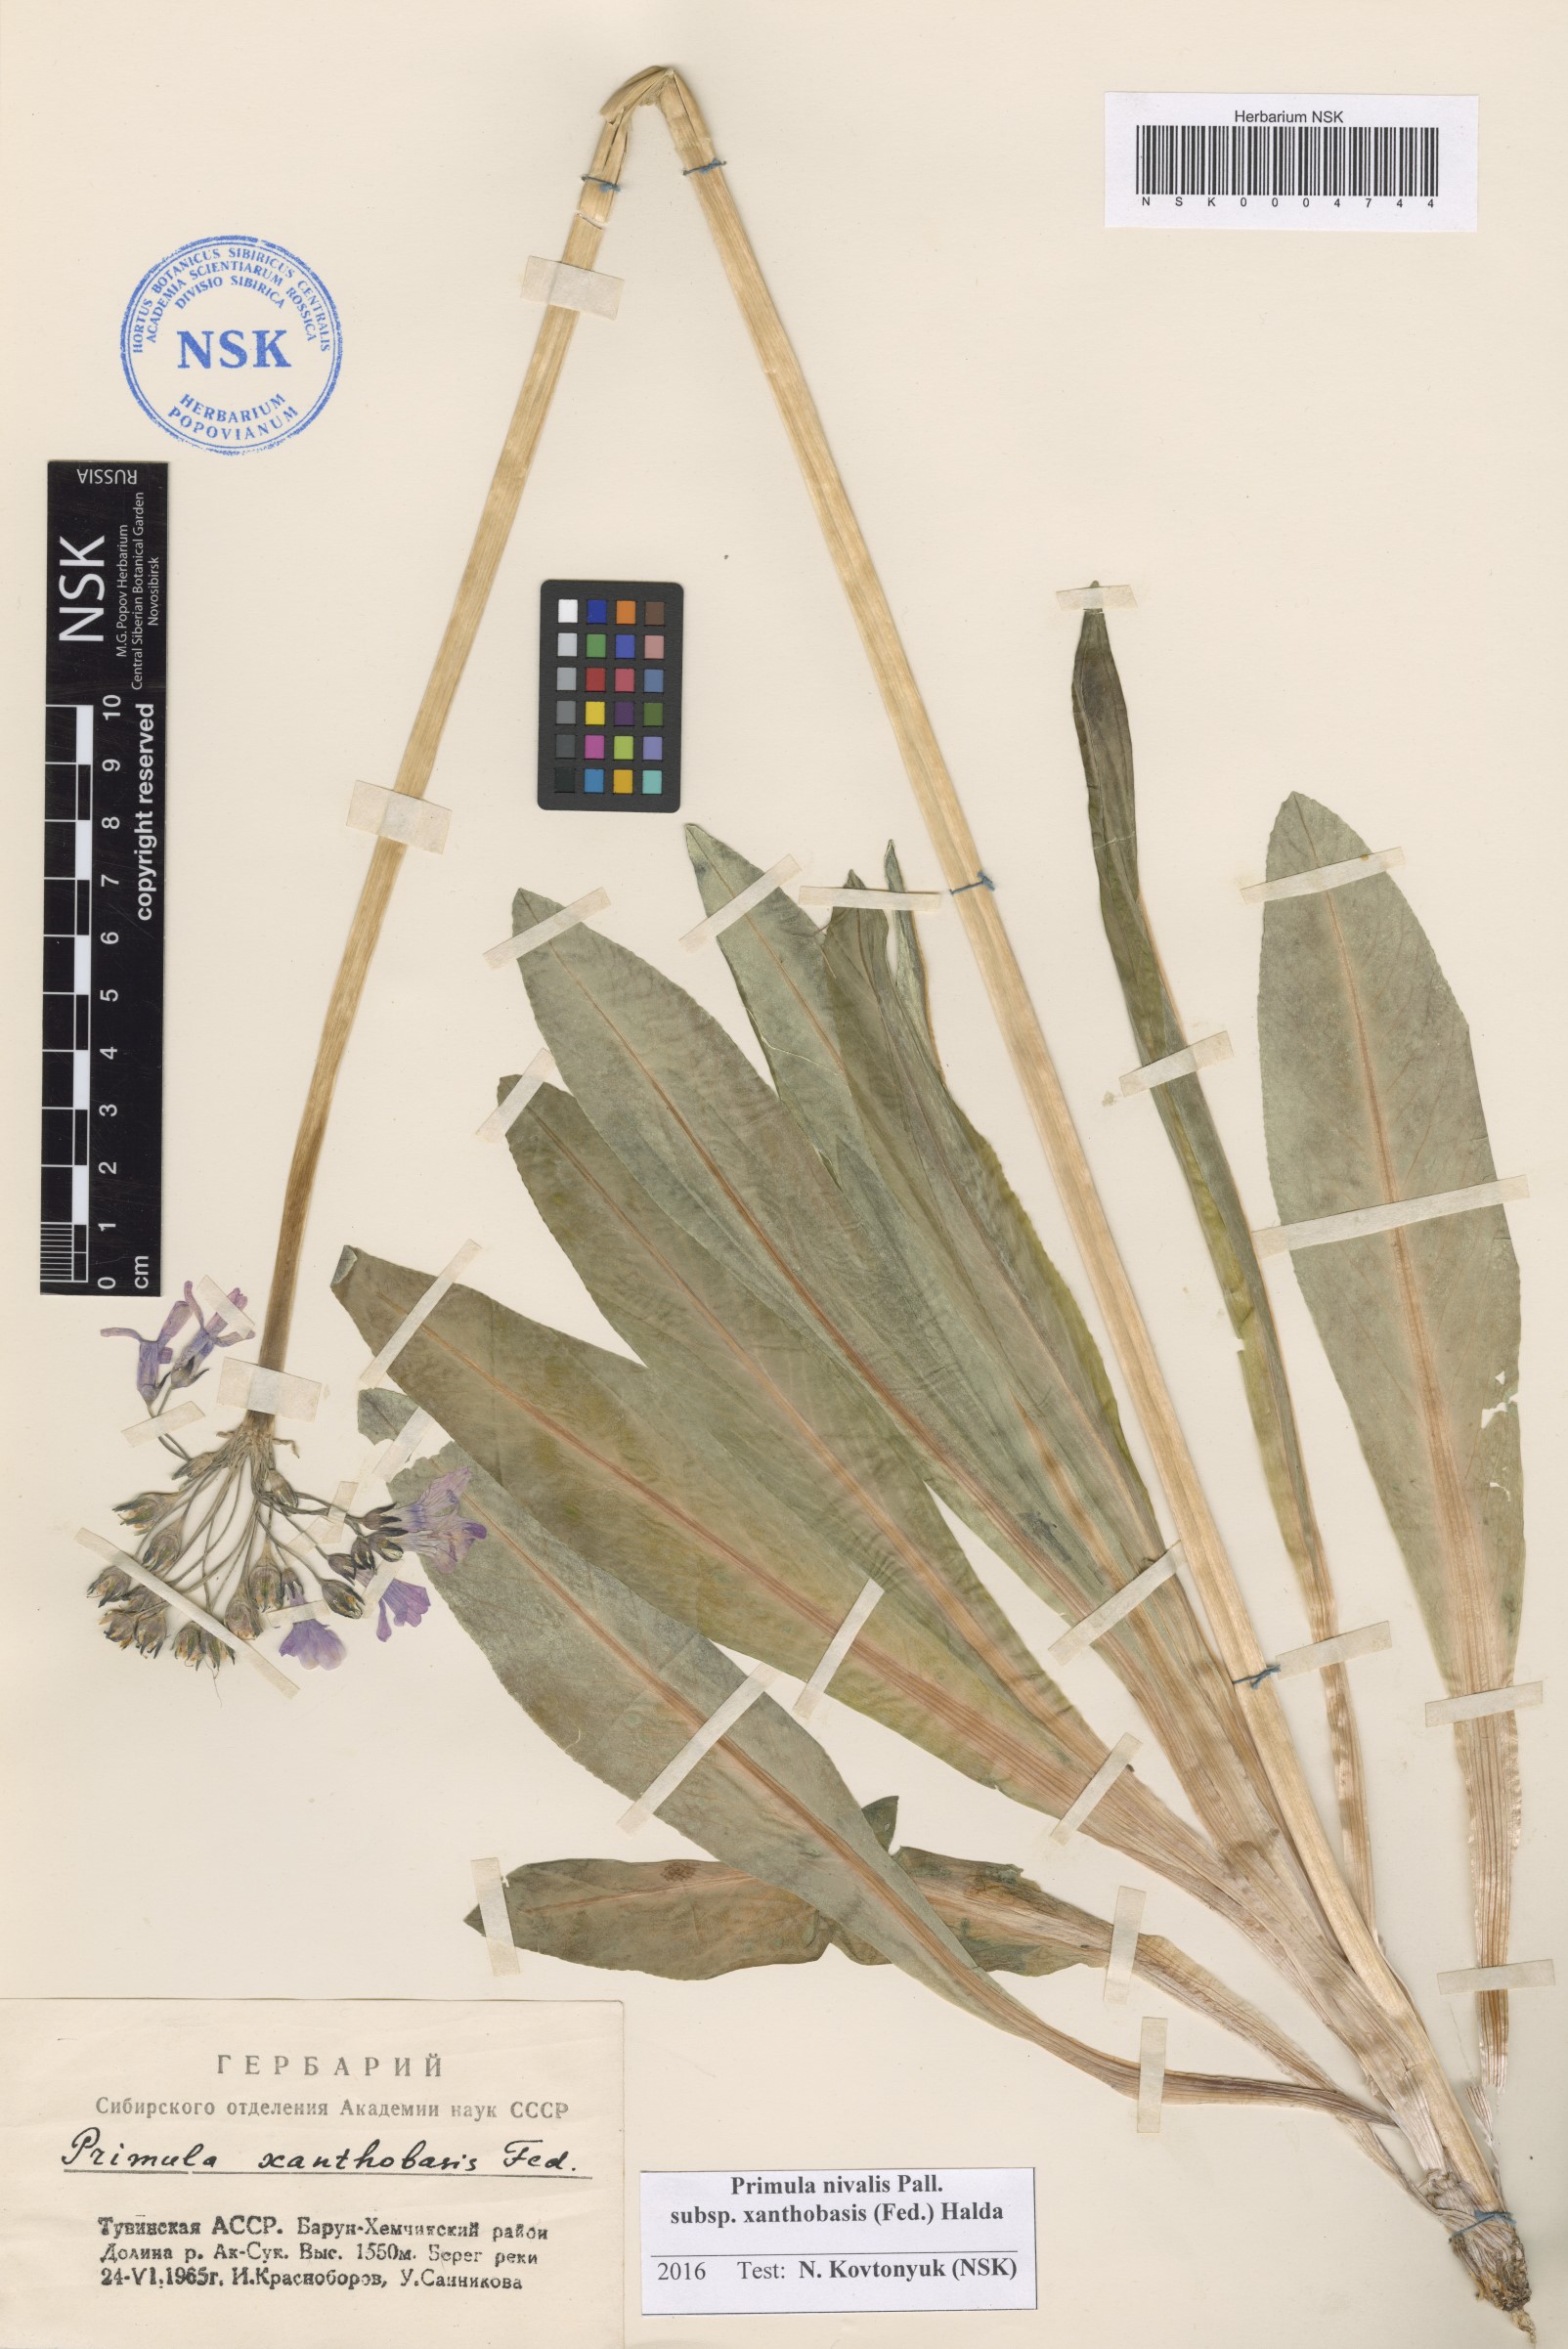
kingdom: Plantae
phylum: Tracheophyta
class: Magnoliopsida
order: Ericales
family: Primulaceae
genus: Primula
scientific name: Primula nivalis
